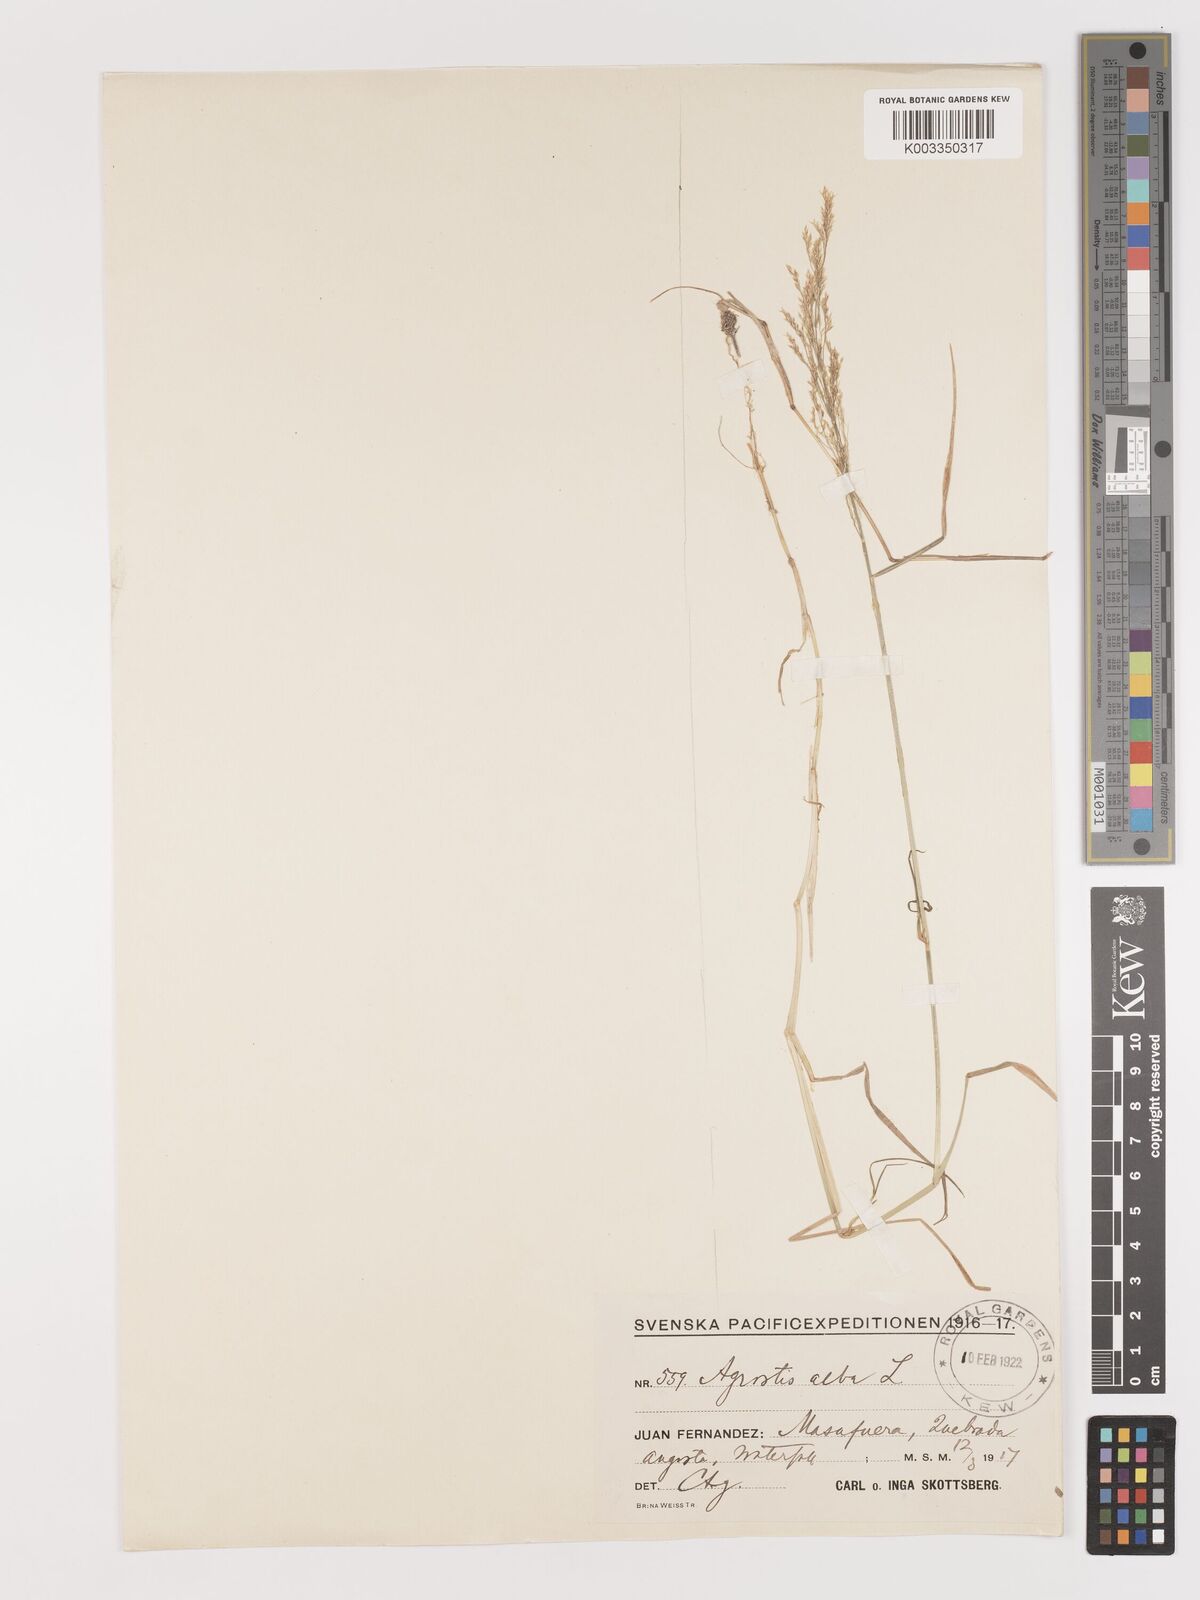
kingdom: Plantae
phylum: Tracheophyta
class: Liliopsida
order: Poales
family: Poaceae
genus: Agrostis
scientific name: Agrostis
